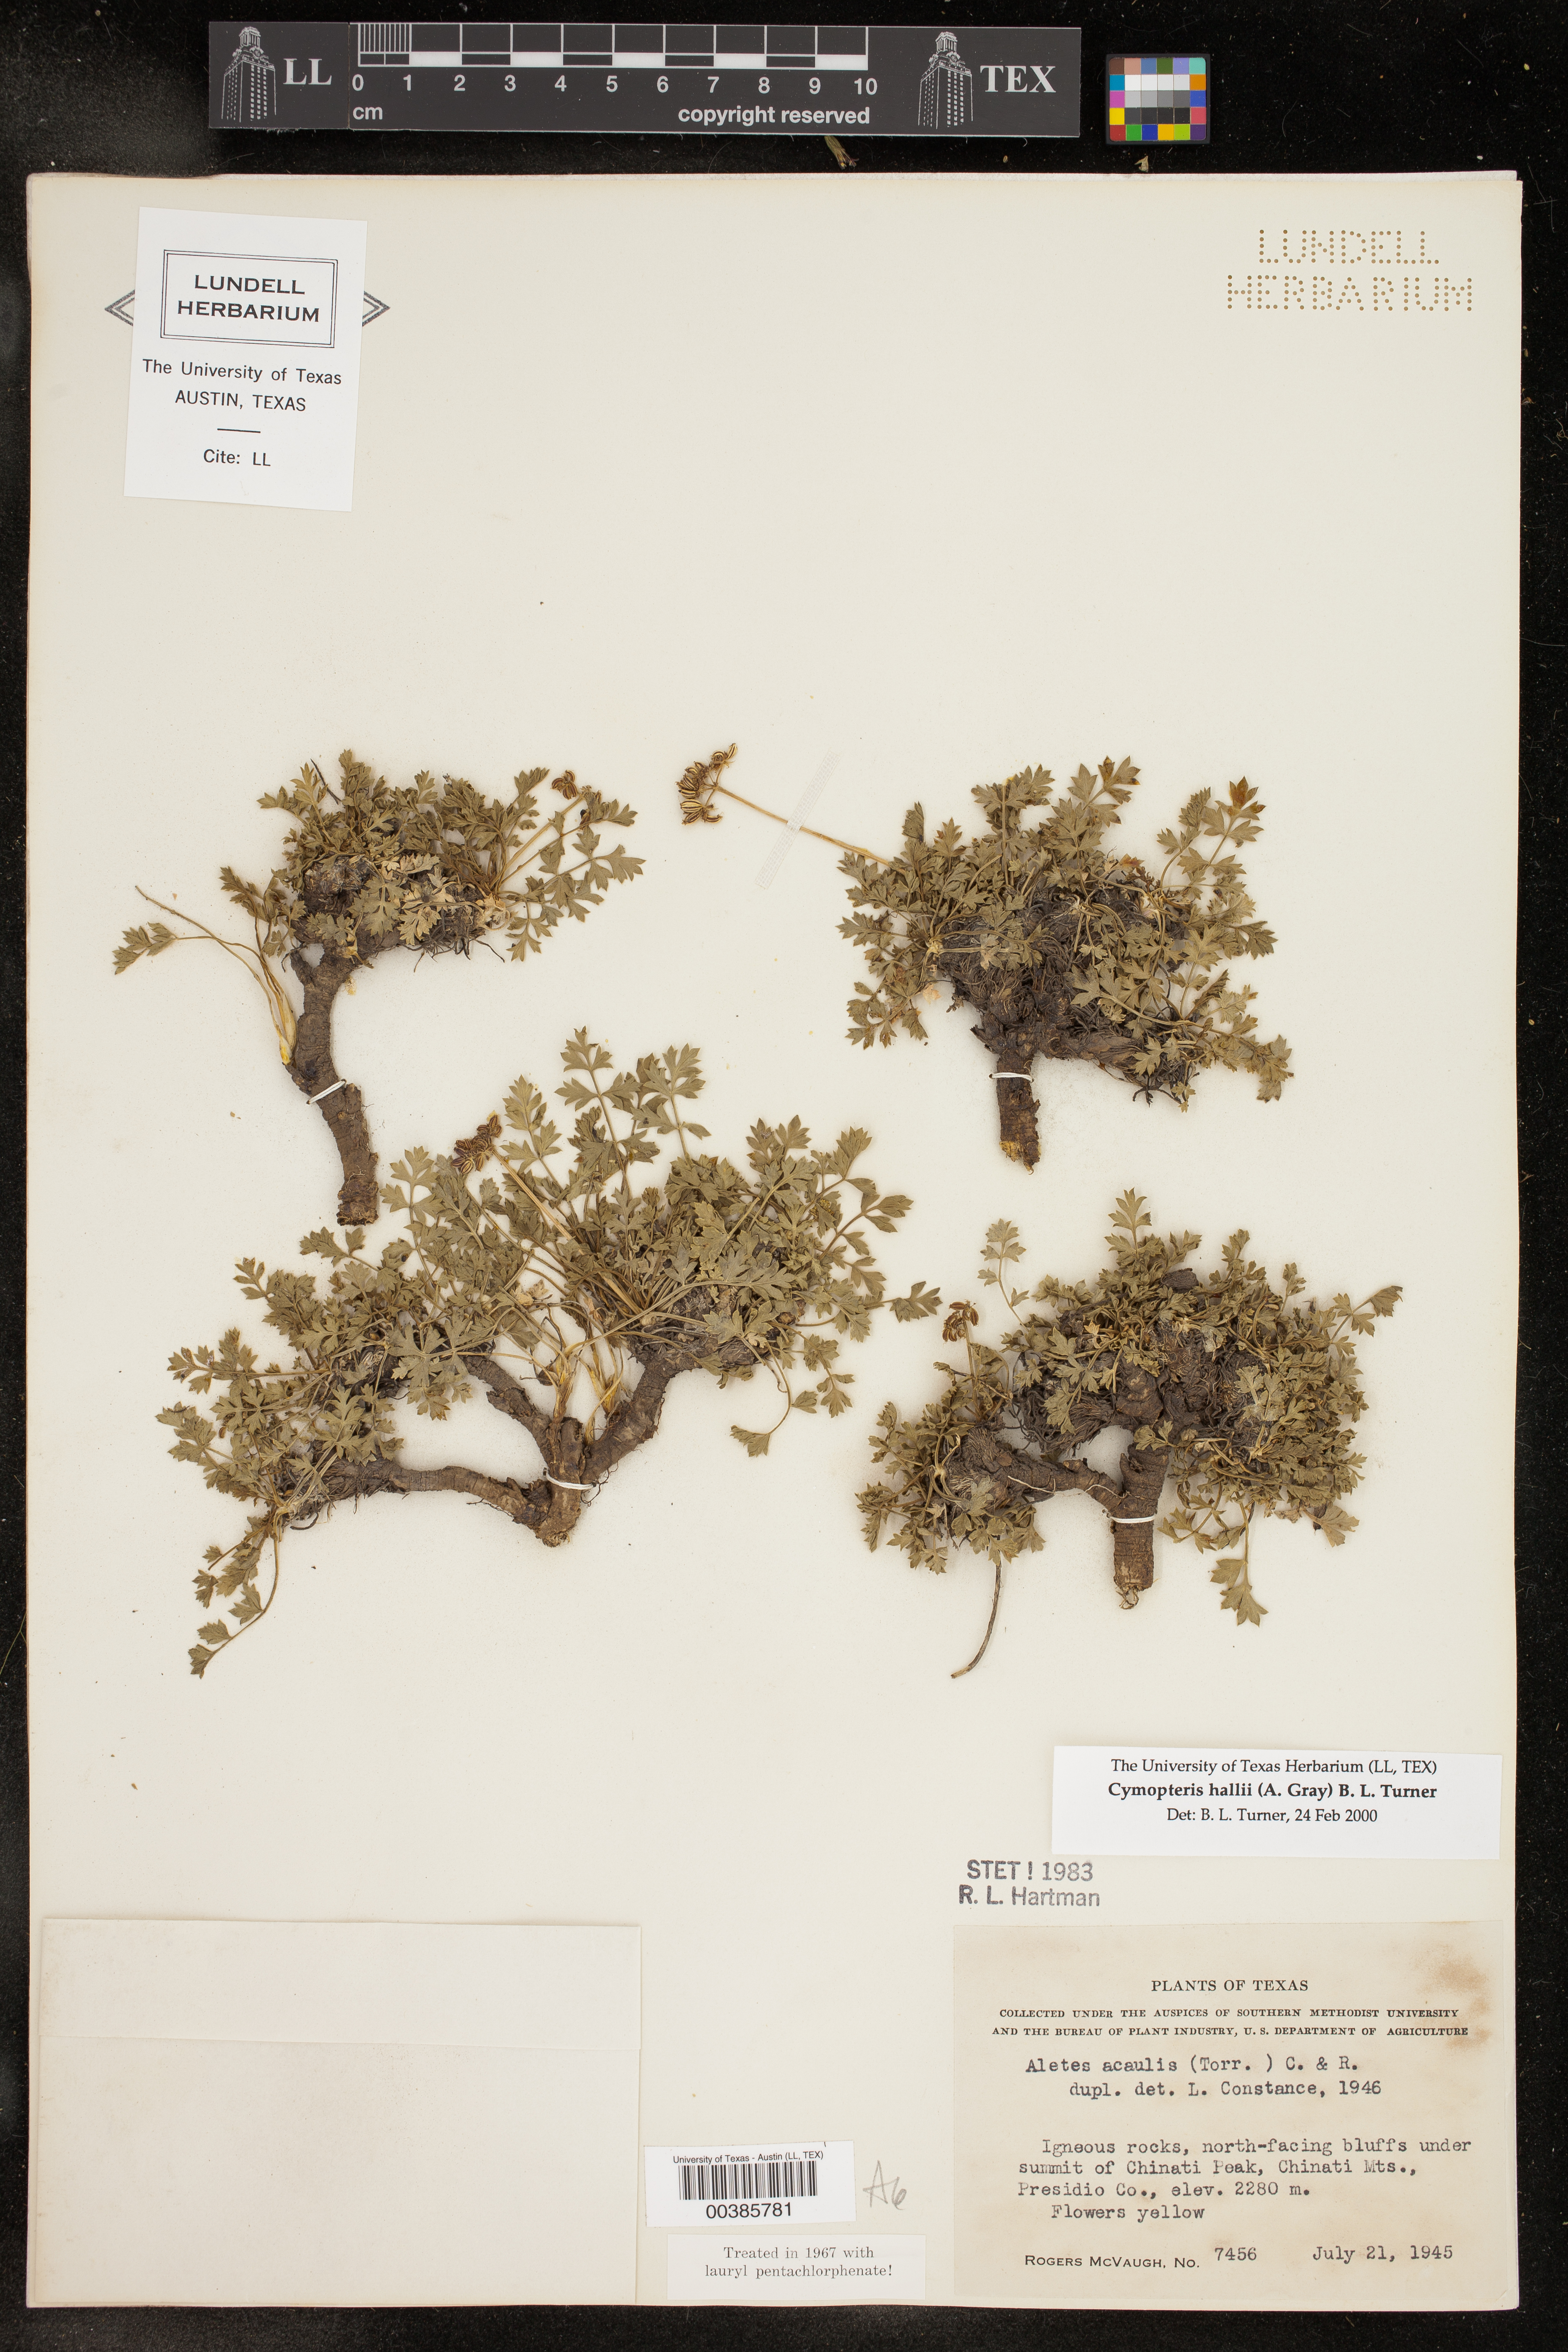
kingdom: Plantae
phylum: Tracheophyta
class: Magnoliopsida
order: Apiales
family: Apiaceae
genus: Cymopterus
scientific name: Cymopterus hallii
